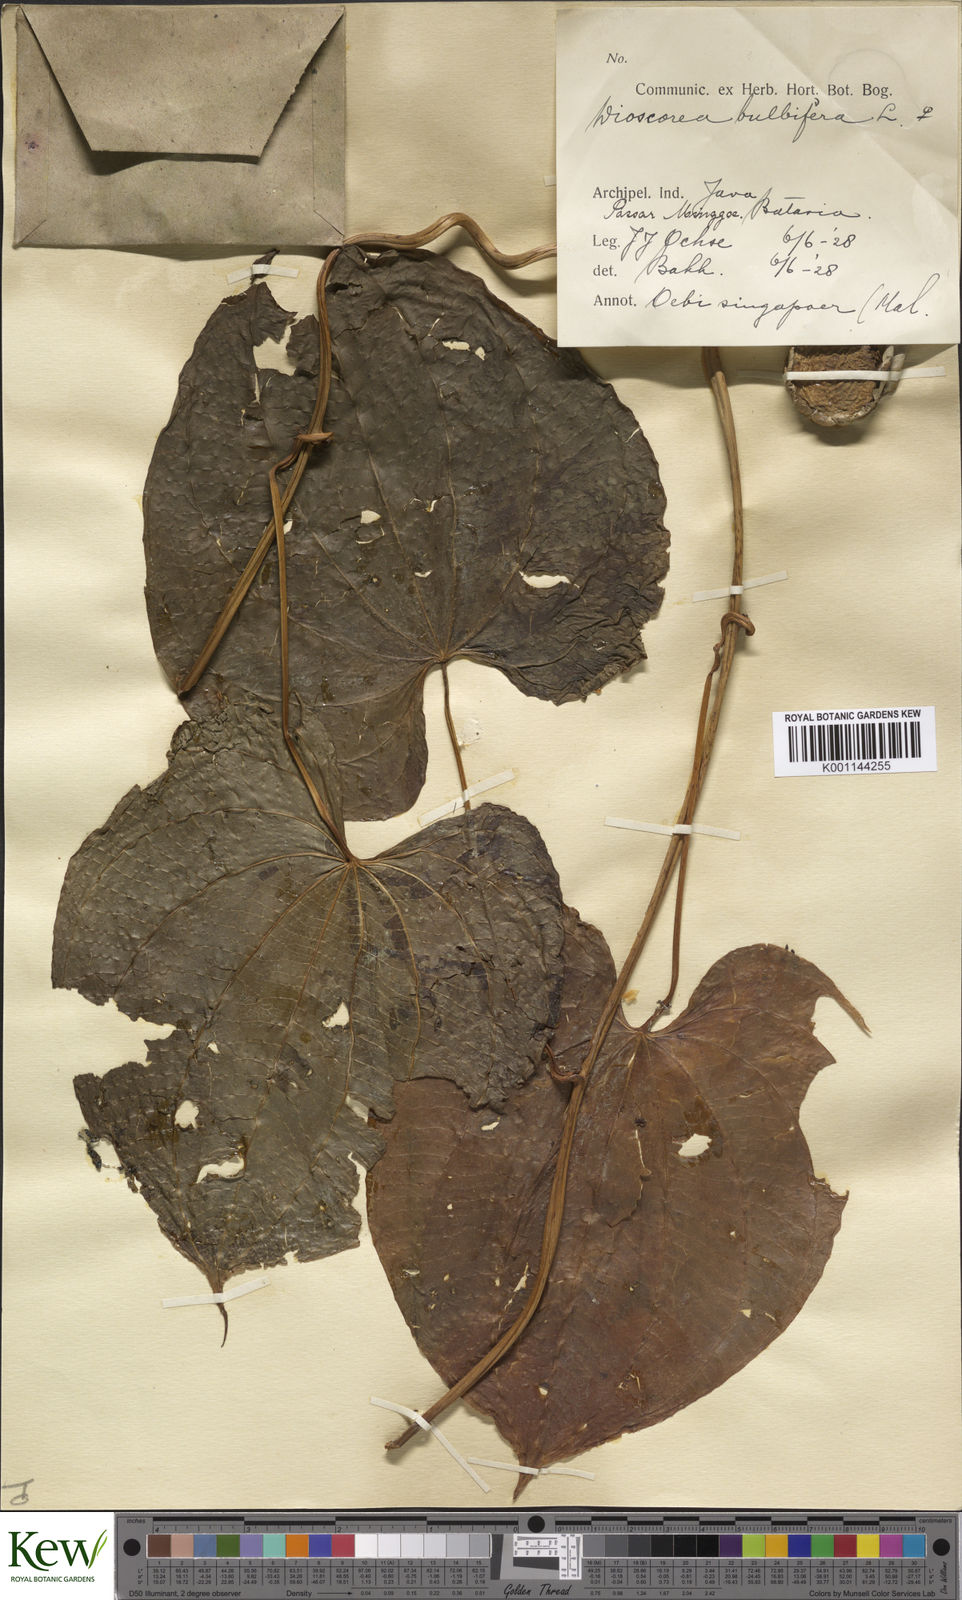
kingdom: Plantae
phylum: Tracheophyta
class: Liliopsida
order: Dioscoreales
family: Dioscoreaceae
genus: Dioscorea
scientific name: Dioscorea bulbifera
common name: Air yam
